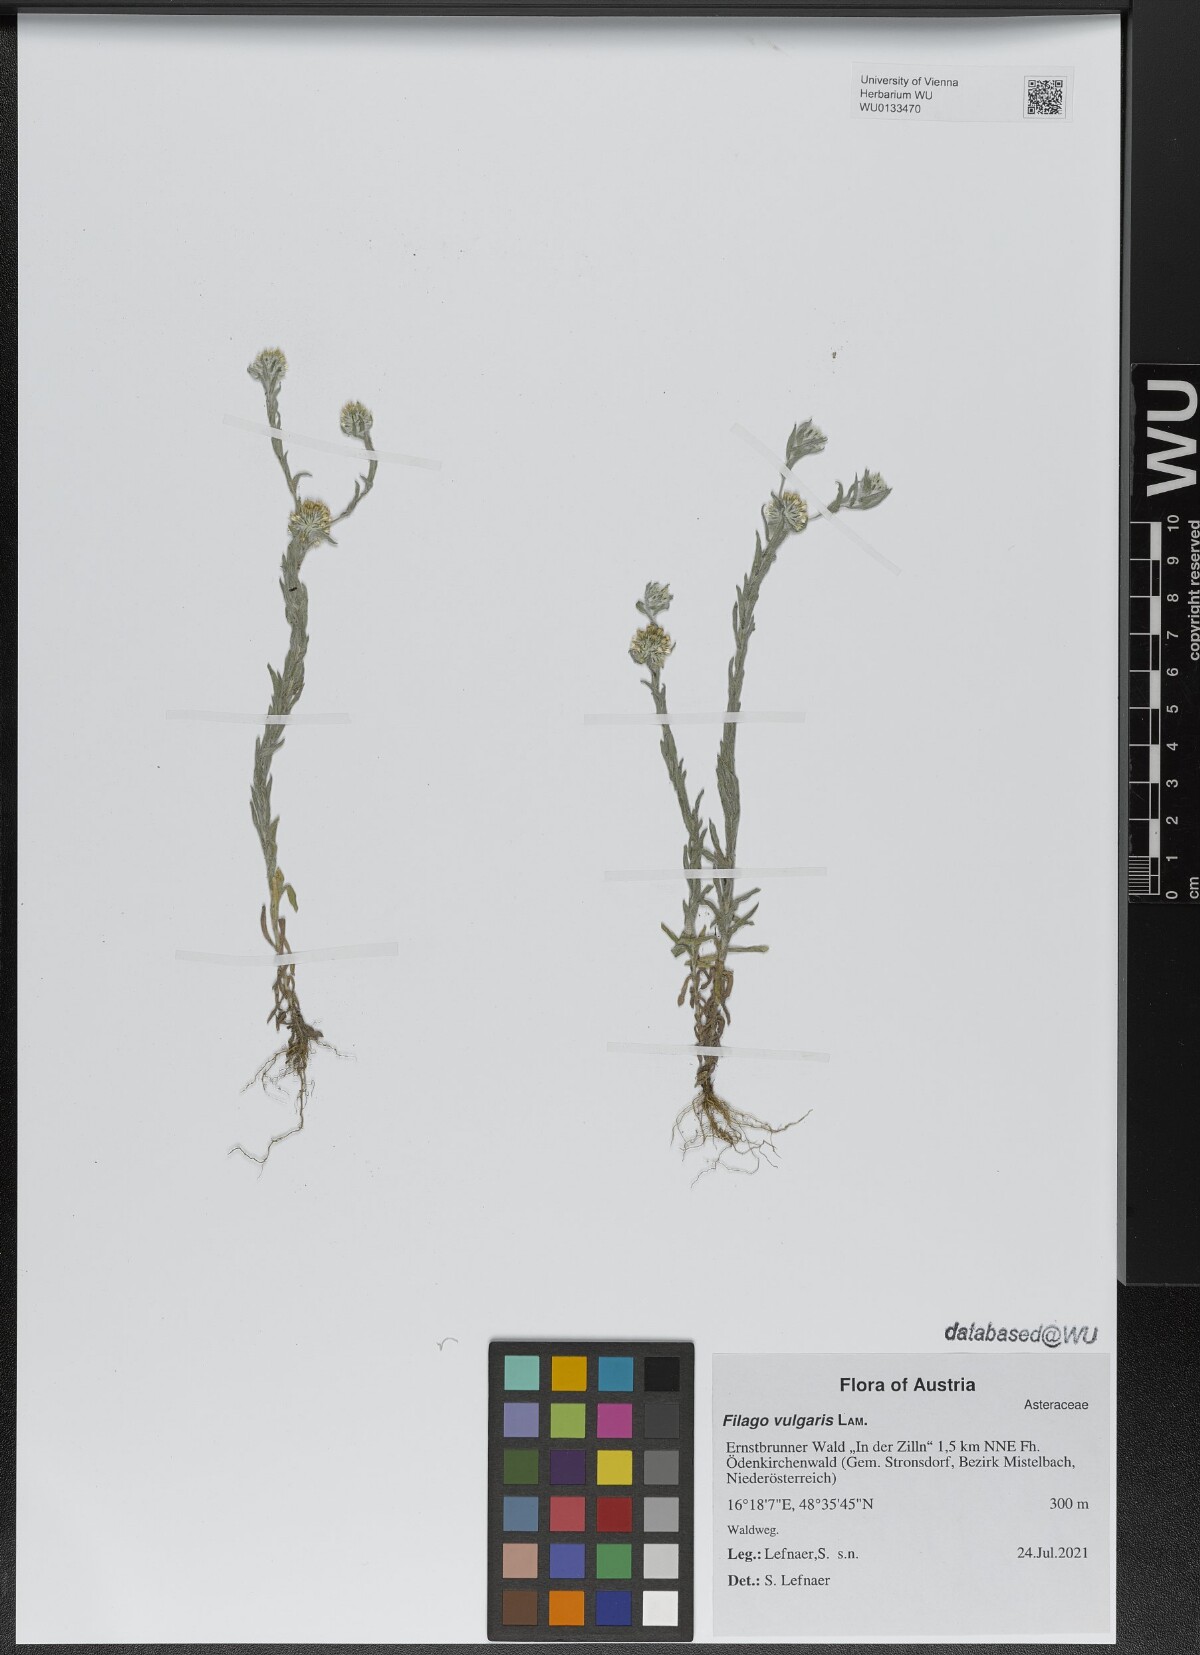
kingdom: Plantae
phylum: Tracheophyta
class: Magnoliopsida
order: Asterales
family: Asteraceae
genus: Filago
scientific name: Filago germanica
